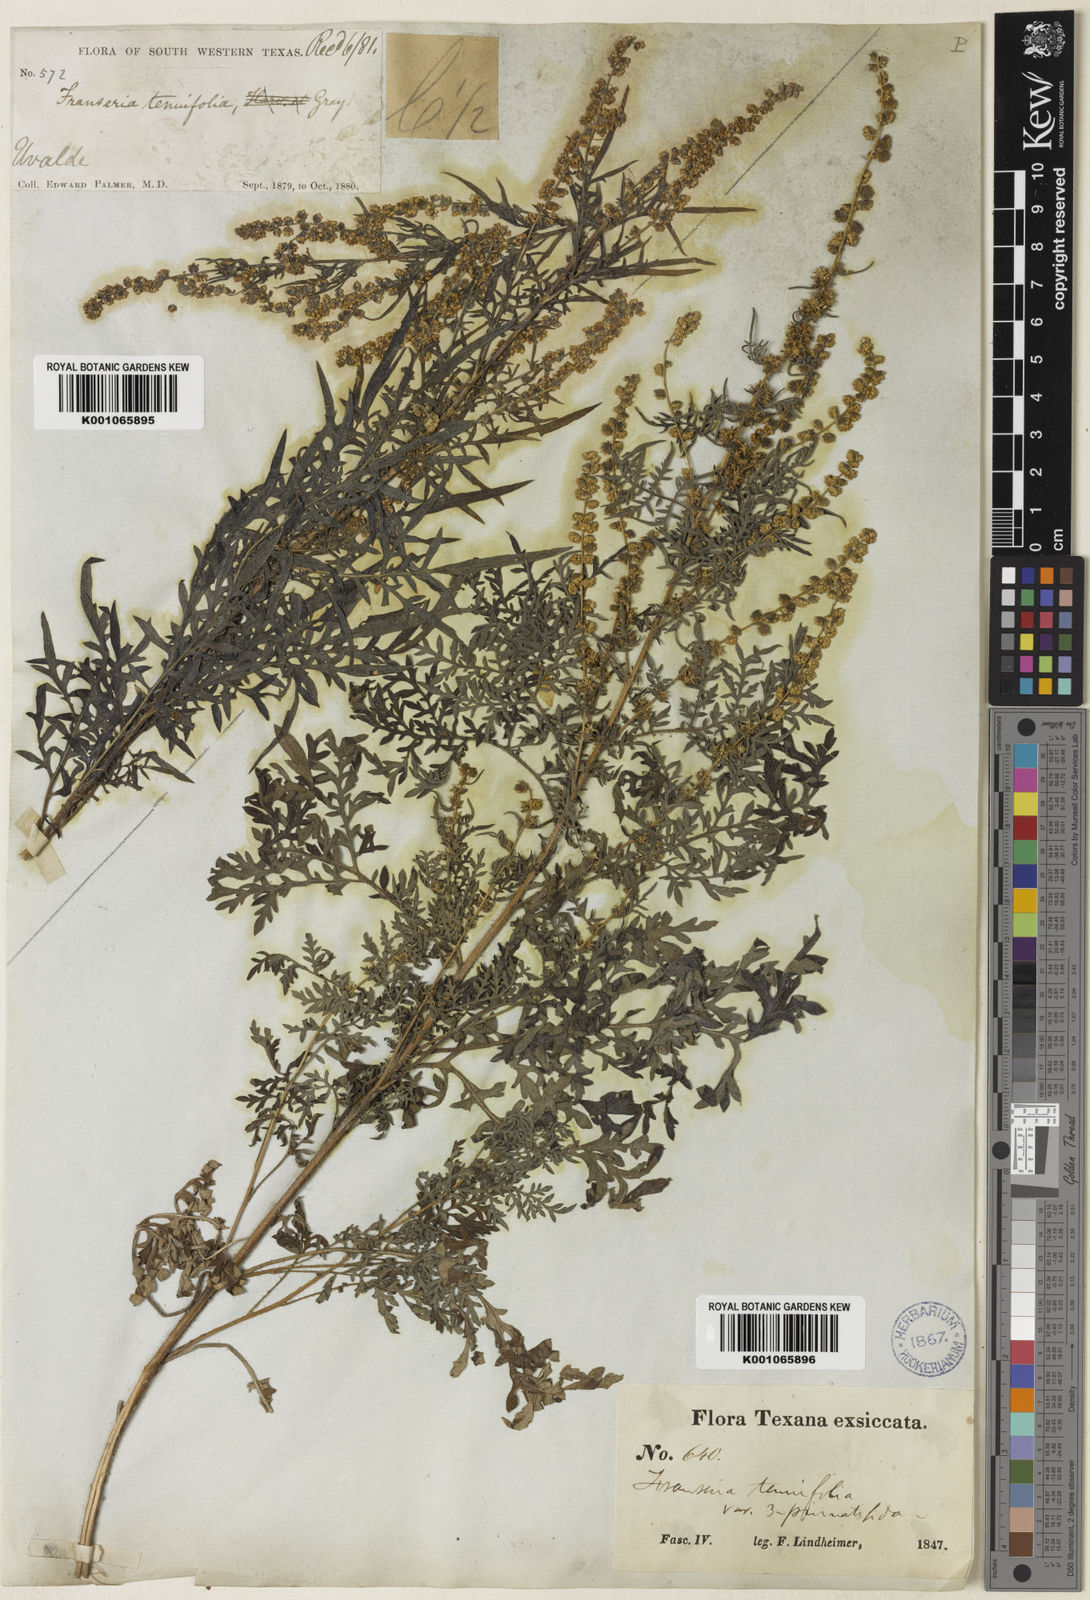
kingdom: Plantae
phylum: Tracheophyta
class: Magnoliopsida
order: Asterales
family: Asteraceae
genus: Ambrosia
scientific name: Ambrosia tenuifolia
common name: Lacy ambrosia
